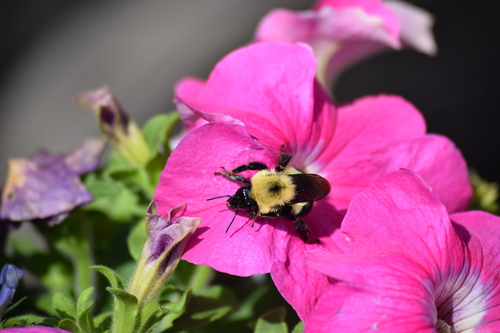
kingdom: Animalia
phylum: Arthropoda
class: Insecta
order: Hymenoptera
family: Apidae
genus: Bombus
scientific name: Bombus bimaculatus
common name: Two-spotted bumble bee
